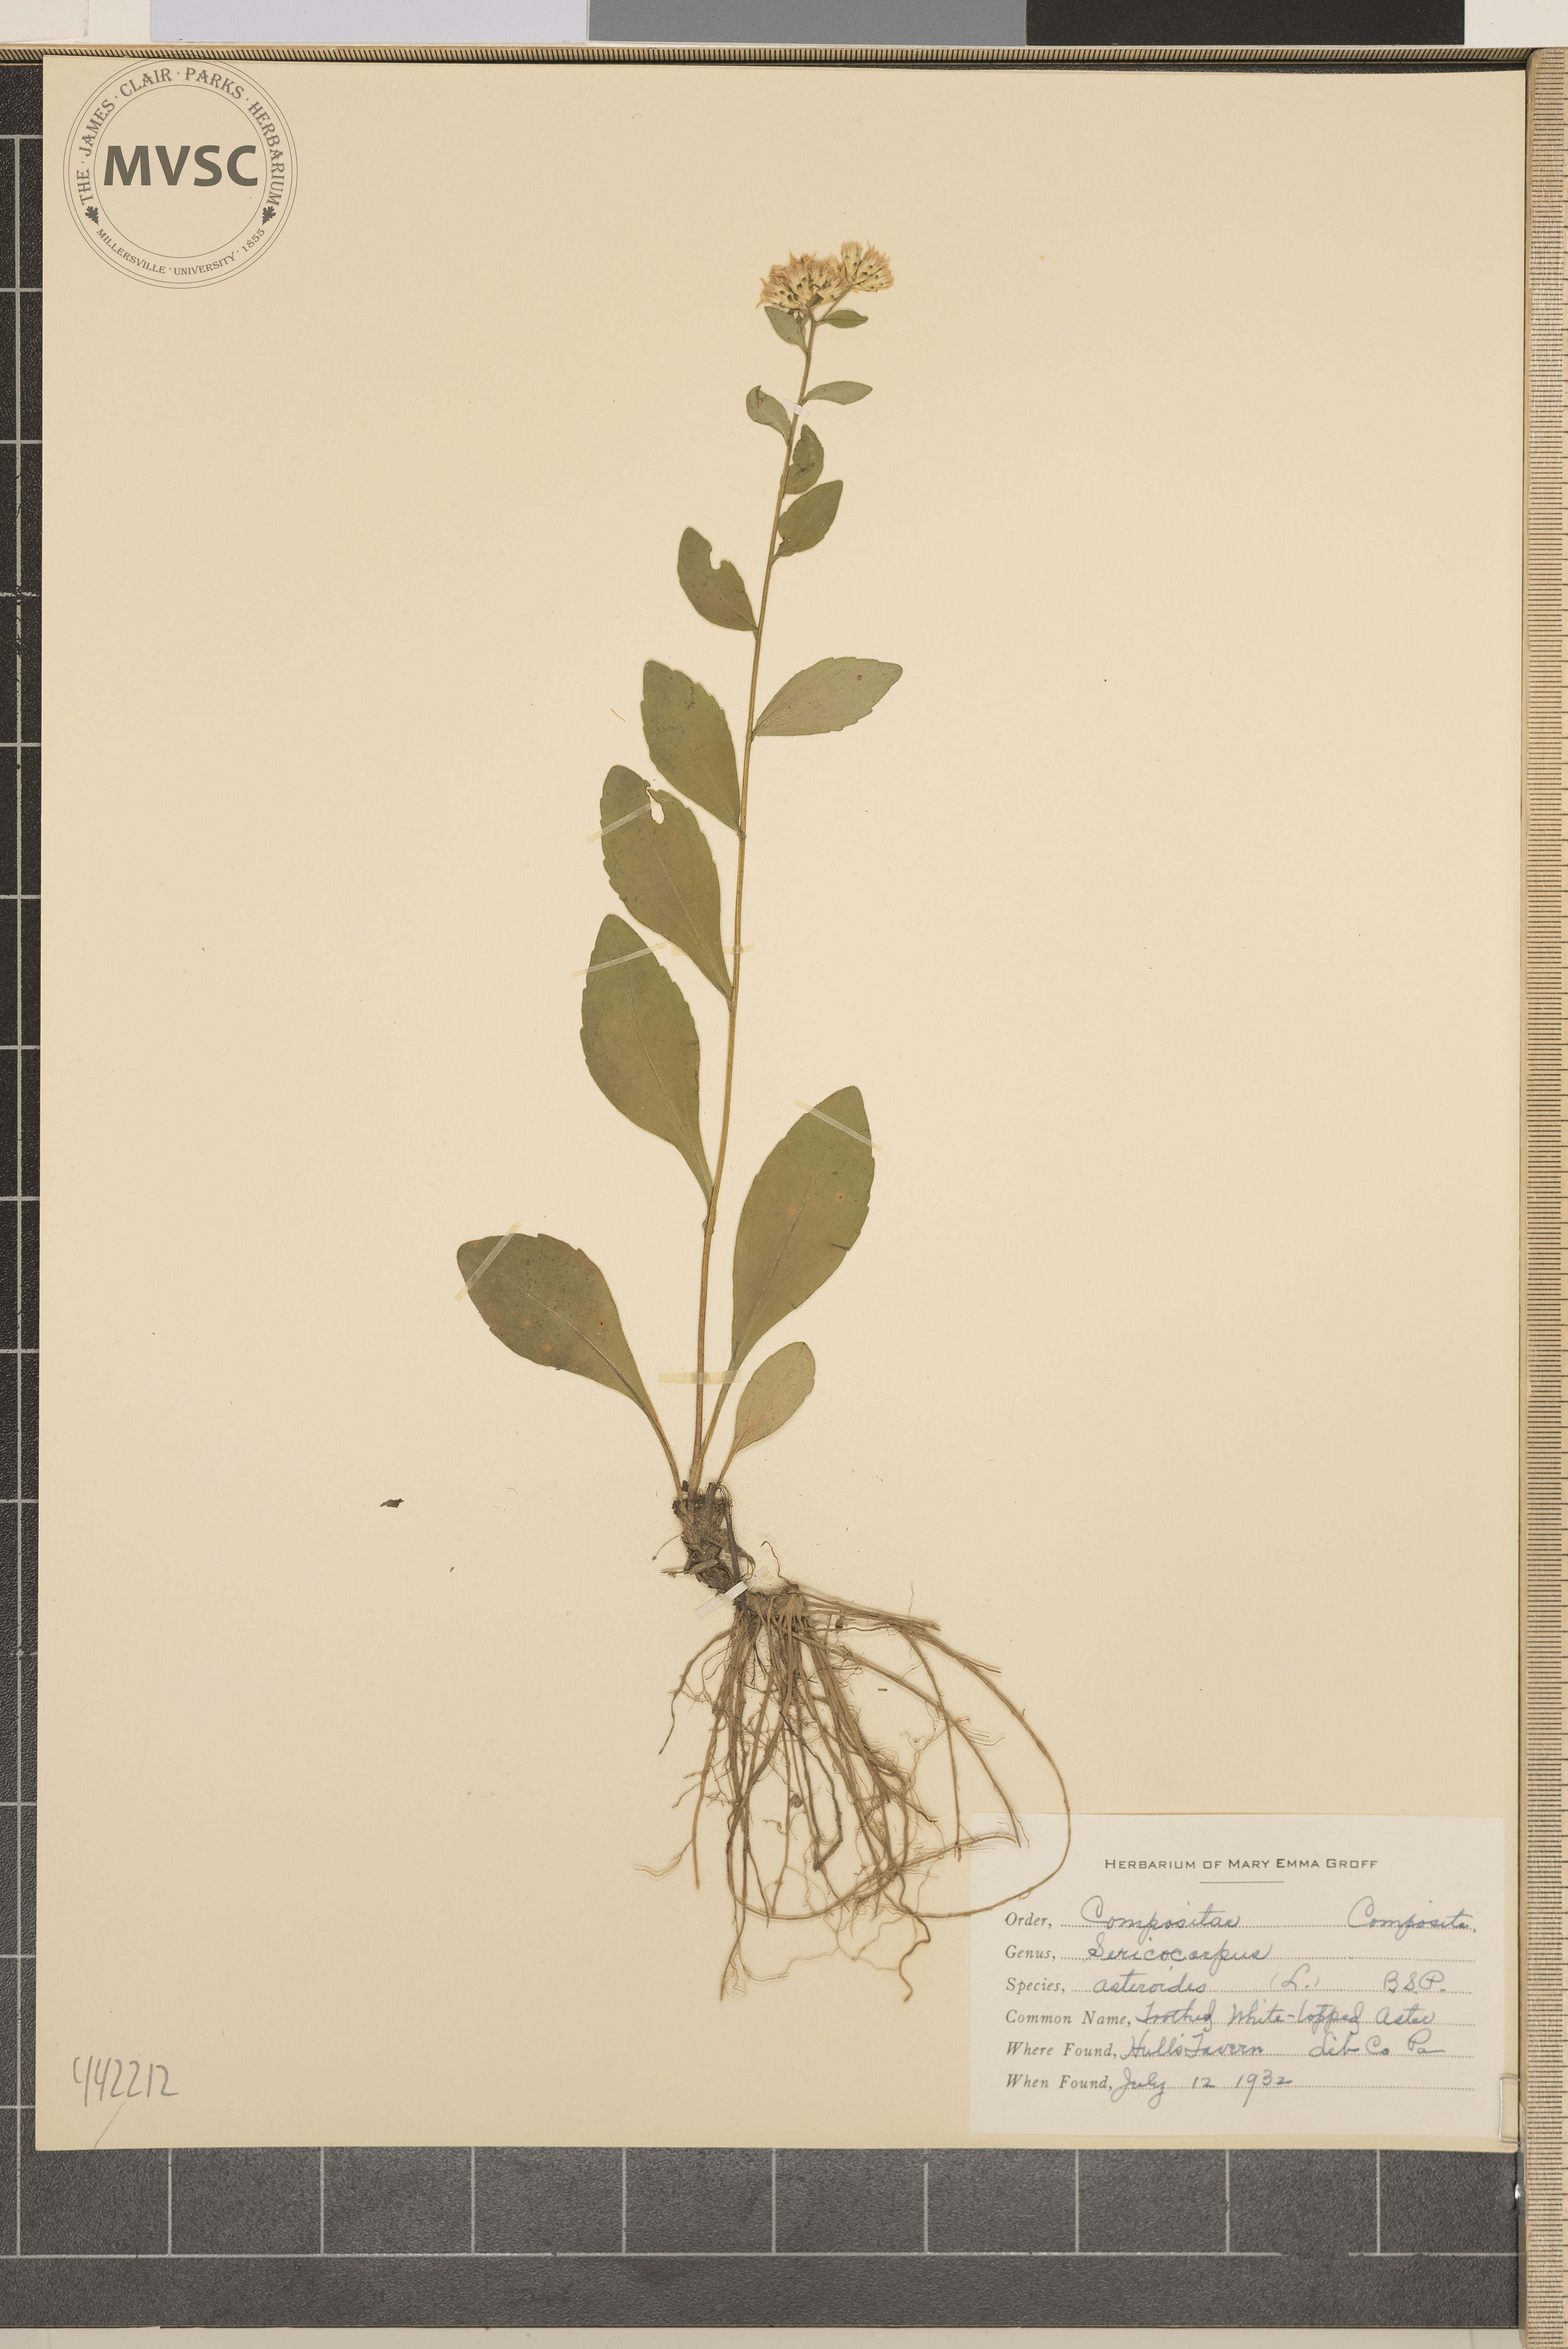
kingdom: Plantae
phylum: Tracheophyta
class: Magnoliopsida
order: Asterales
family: Asteraceae
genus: Sericocarpus
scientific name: Sericocarpus asteroides
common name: Toothed white-topped aster
